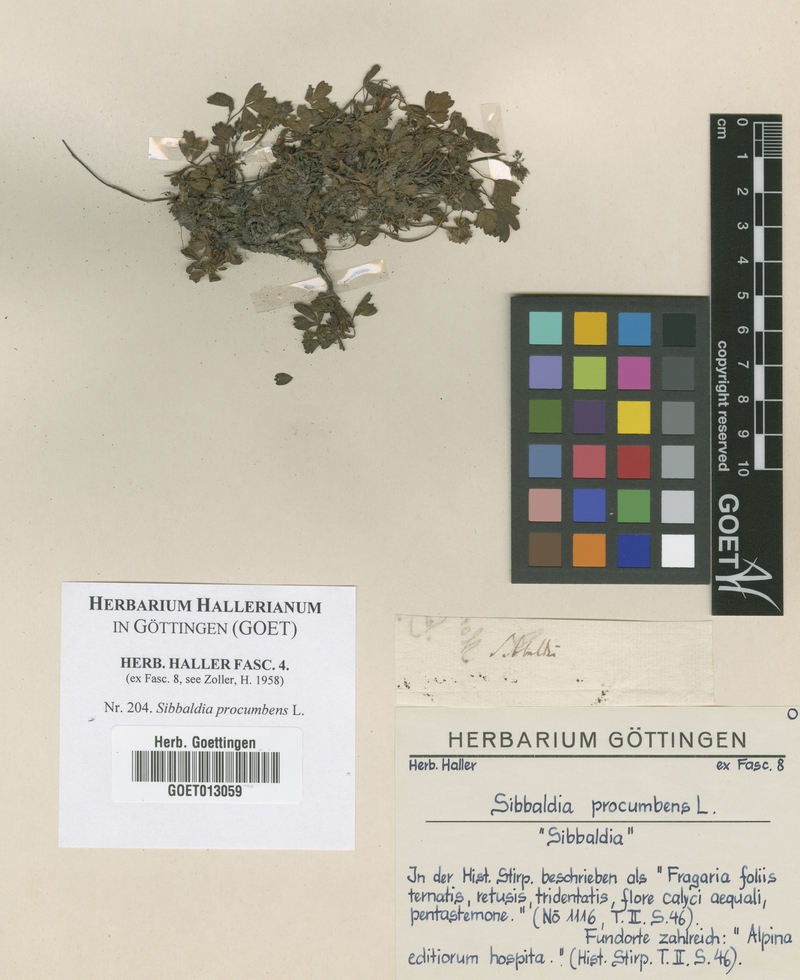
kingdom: Plantae
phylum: Tracheophyta
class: Magnoliopsida
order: Rosales
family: Rosaceae
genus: Sibbaldia
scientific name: Sibbaldia procumbens
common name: Creeping sibbaldia
